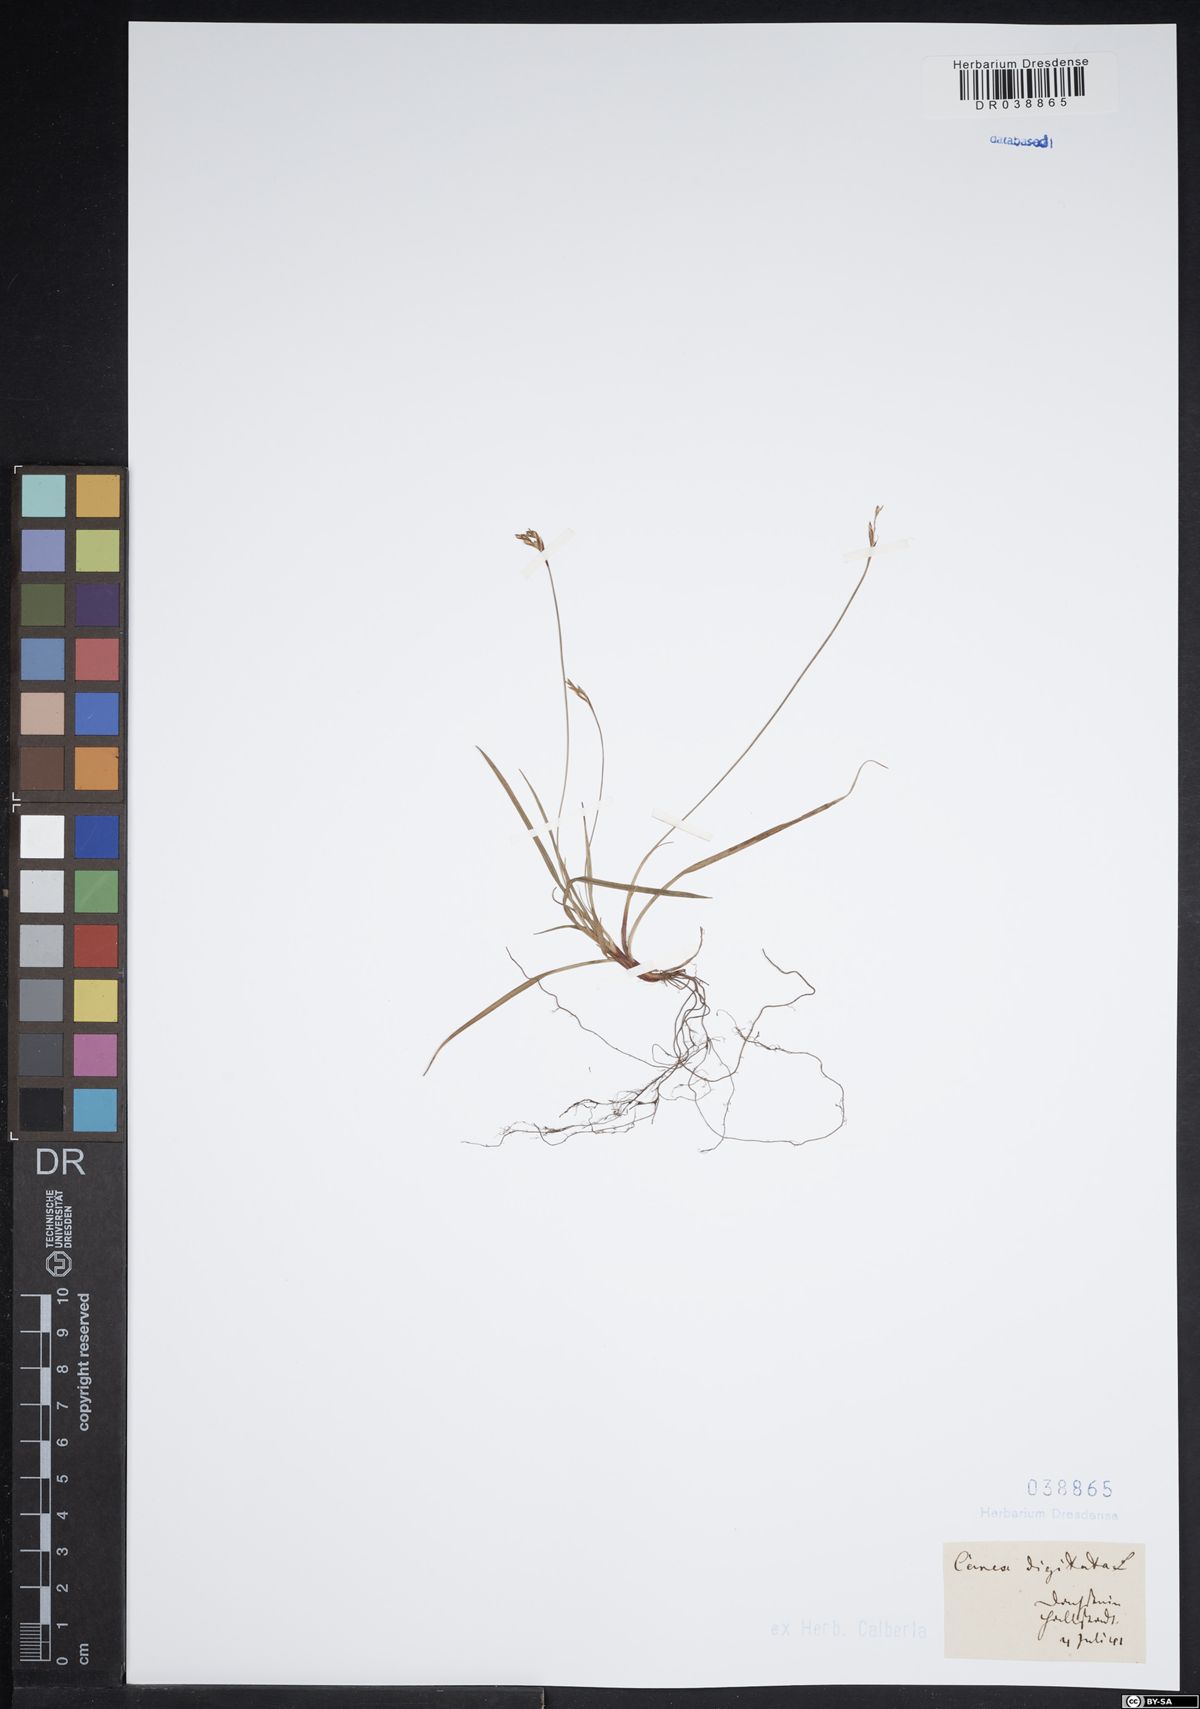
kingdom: Plantae
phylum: Tracheophyta
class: Liliopsida
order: Poales
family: Cyperaceae
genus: Carex
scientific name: Carex digitata
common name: Fingered sedge
